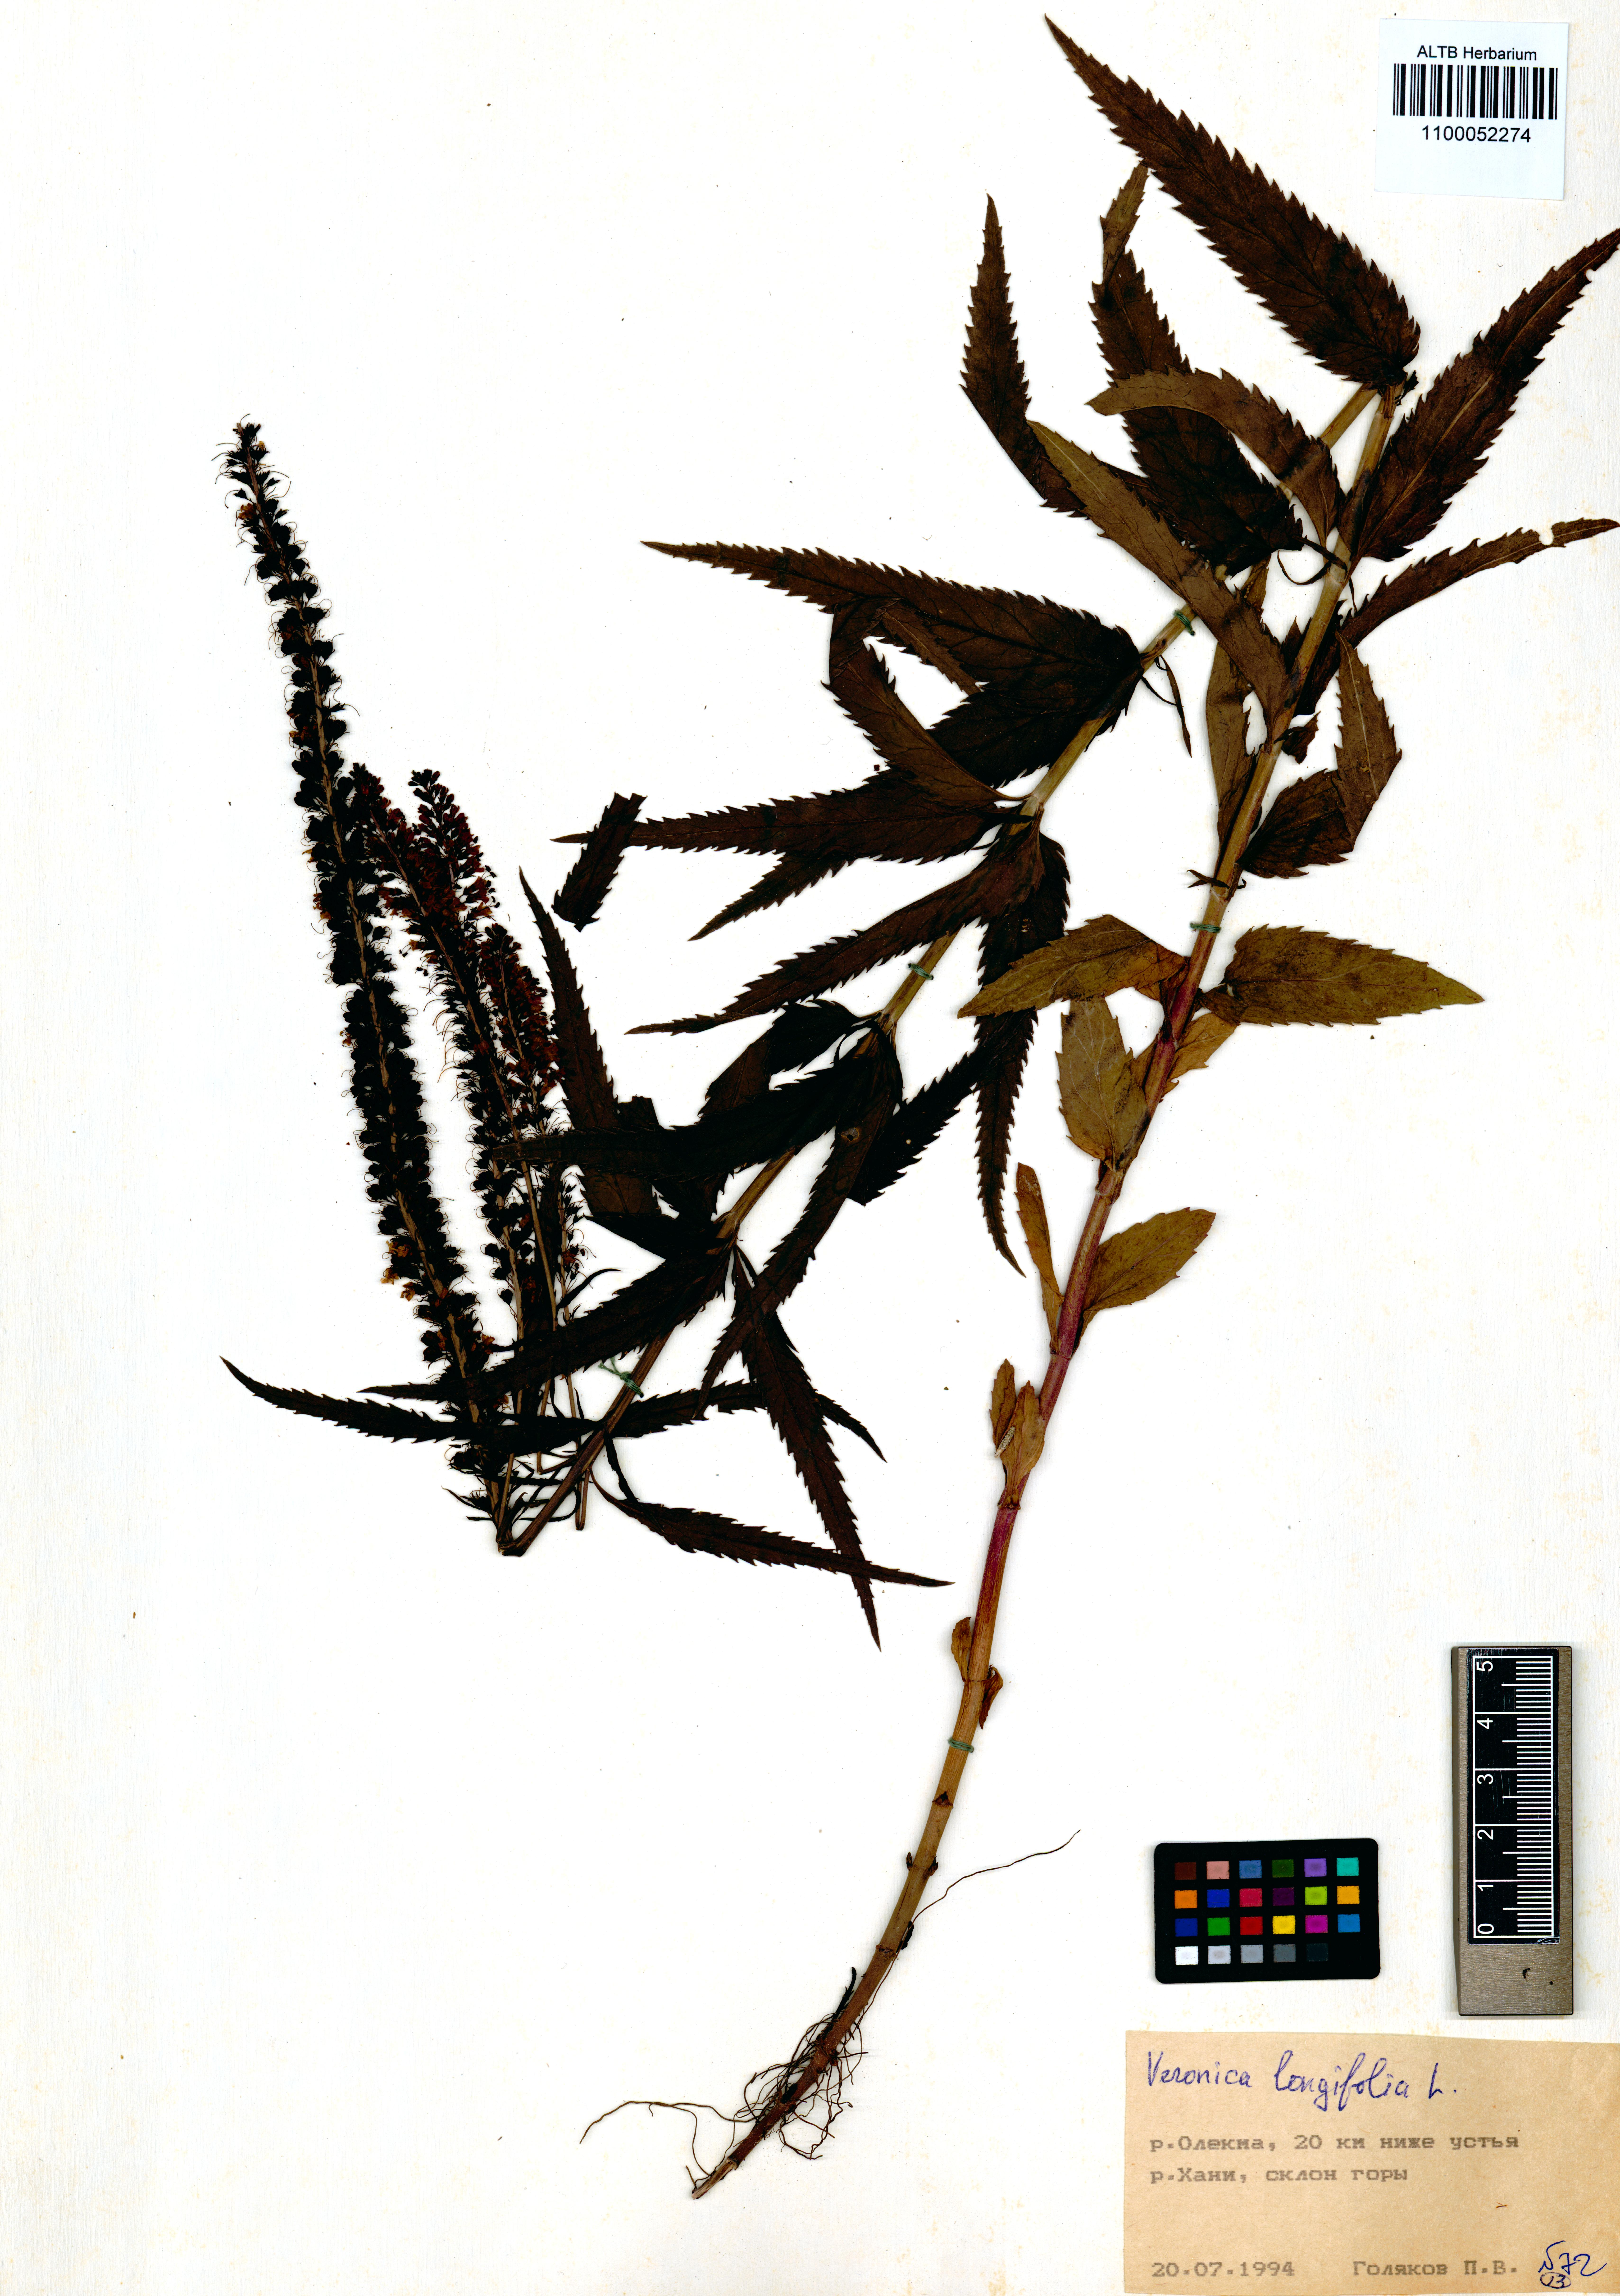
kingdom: Plantae
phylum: Tracheophyta
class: Magnoliopsida
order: Lamiales
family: Plantaginaceae
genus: Veronica
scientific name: Veronica longifolia
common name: Garden speedwell
